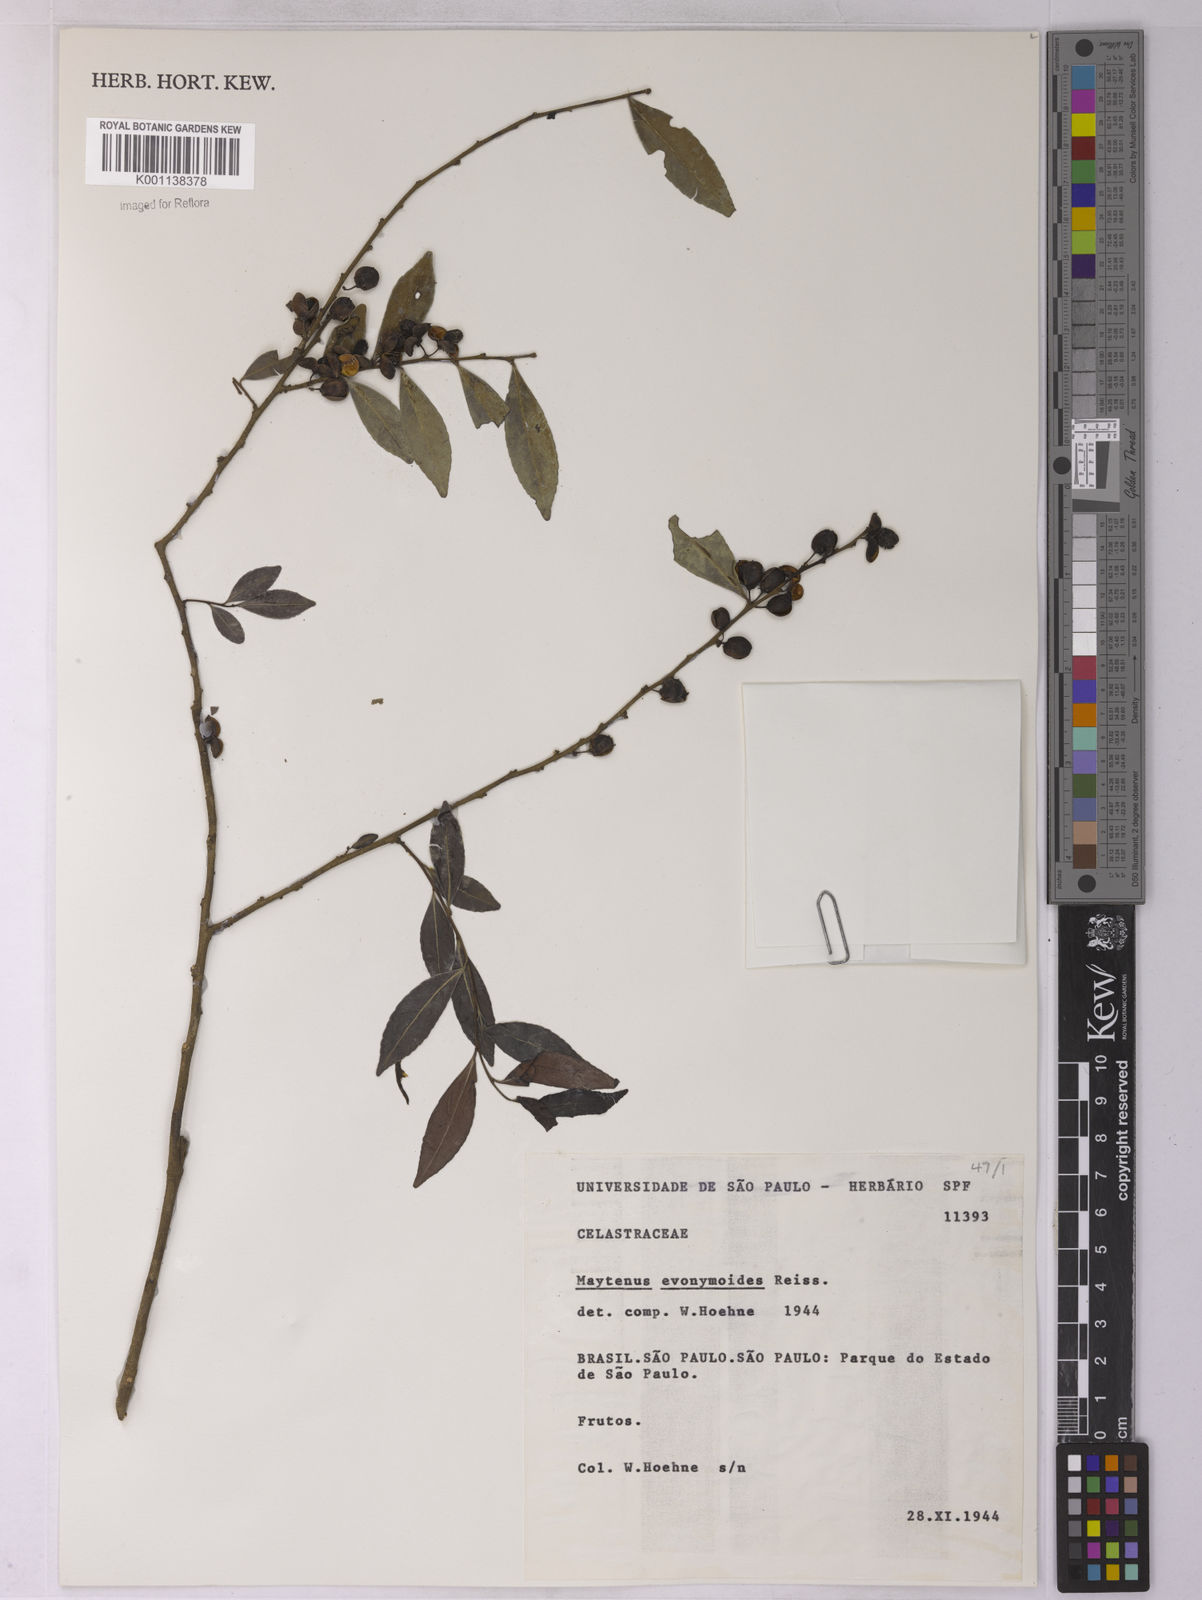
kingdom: Plantae
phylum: Tracheophyta
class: Magnoliopsida
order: Celastrales
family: Celastraceae
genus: Monteverdia
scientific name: Monteverdia evonymoides
